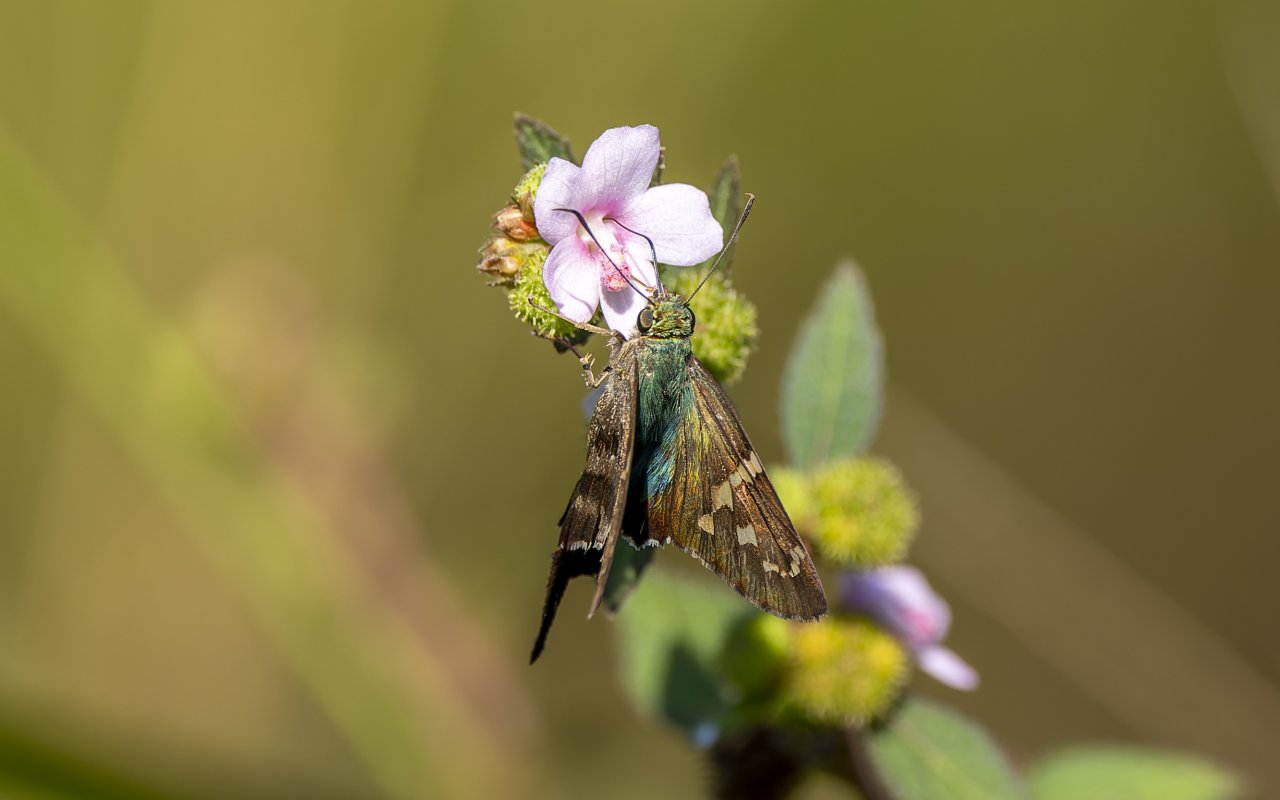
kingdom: Animalia
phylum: Arthropoda
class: Insecta
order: Lepidoptera
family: Hesperiidae
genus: Urbanus
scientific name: Urbanus proteus
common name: Long-tailed Skipper
